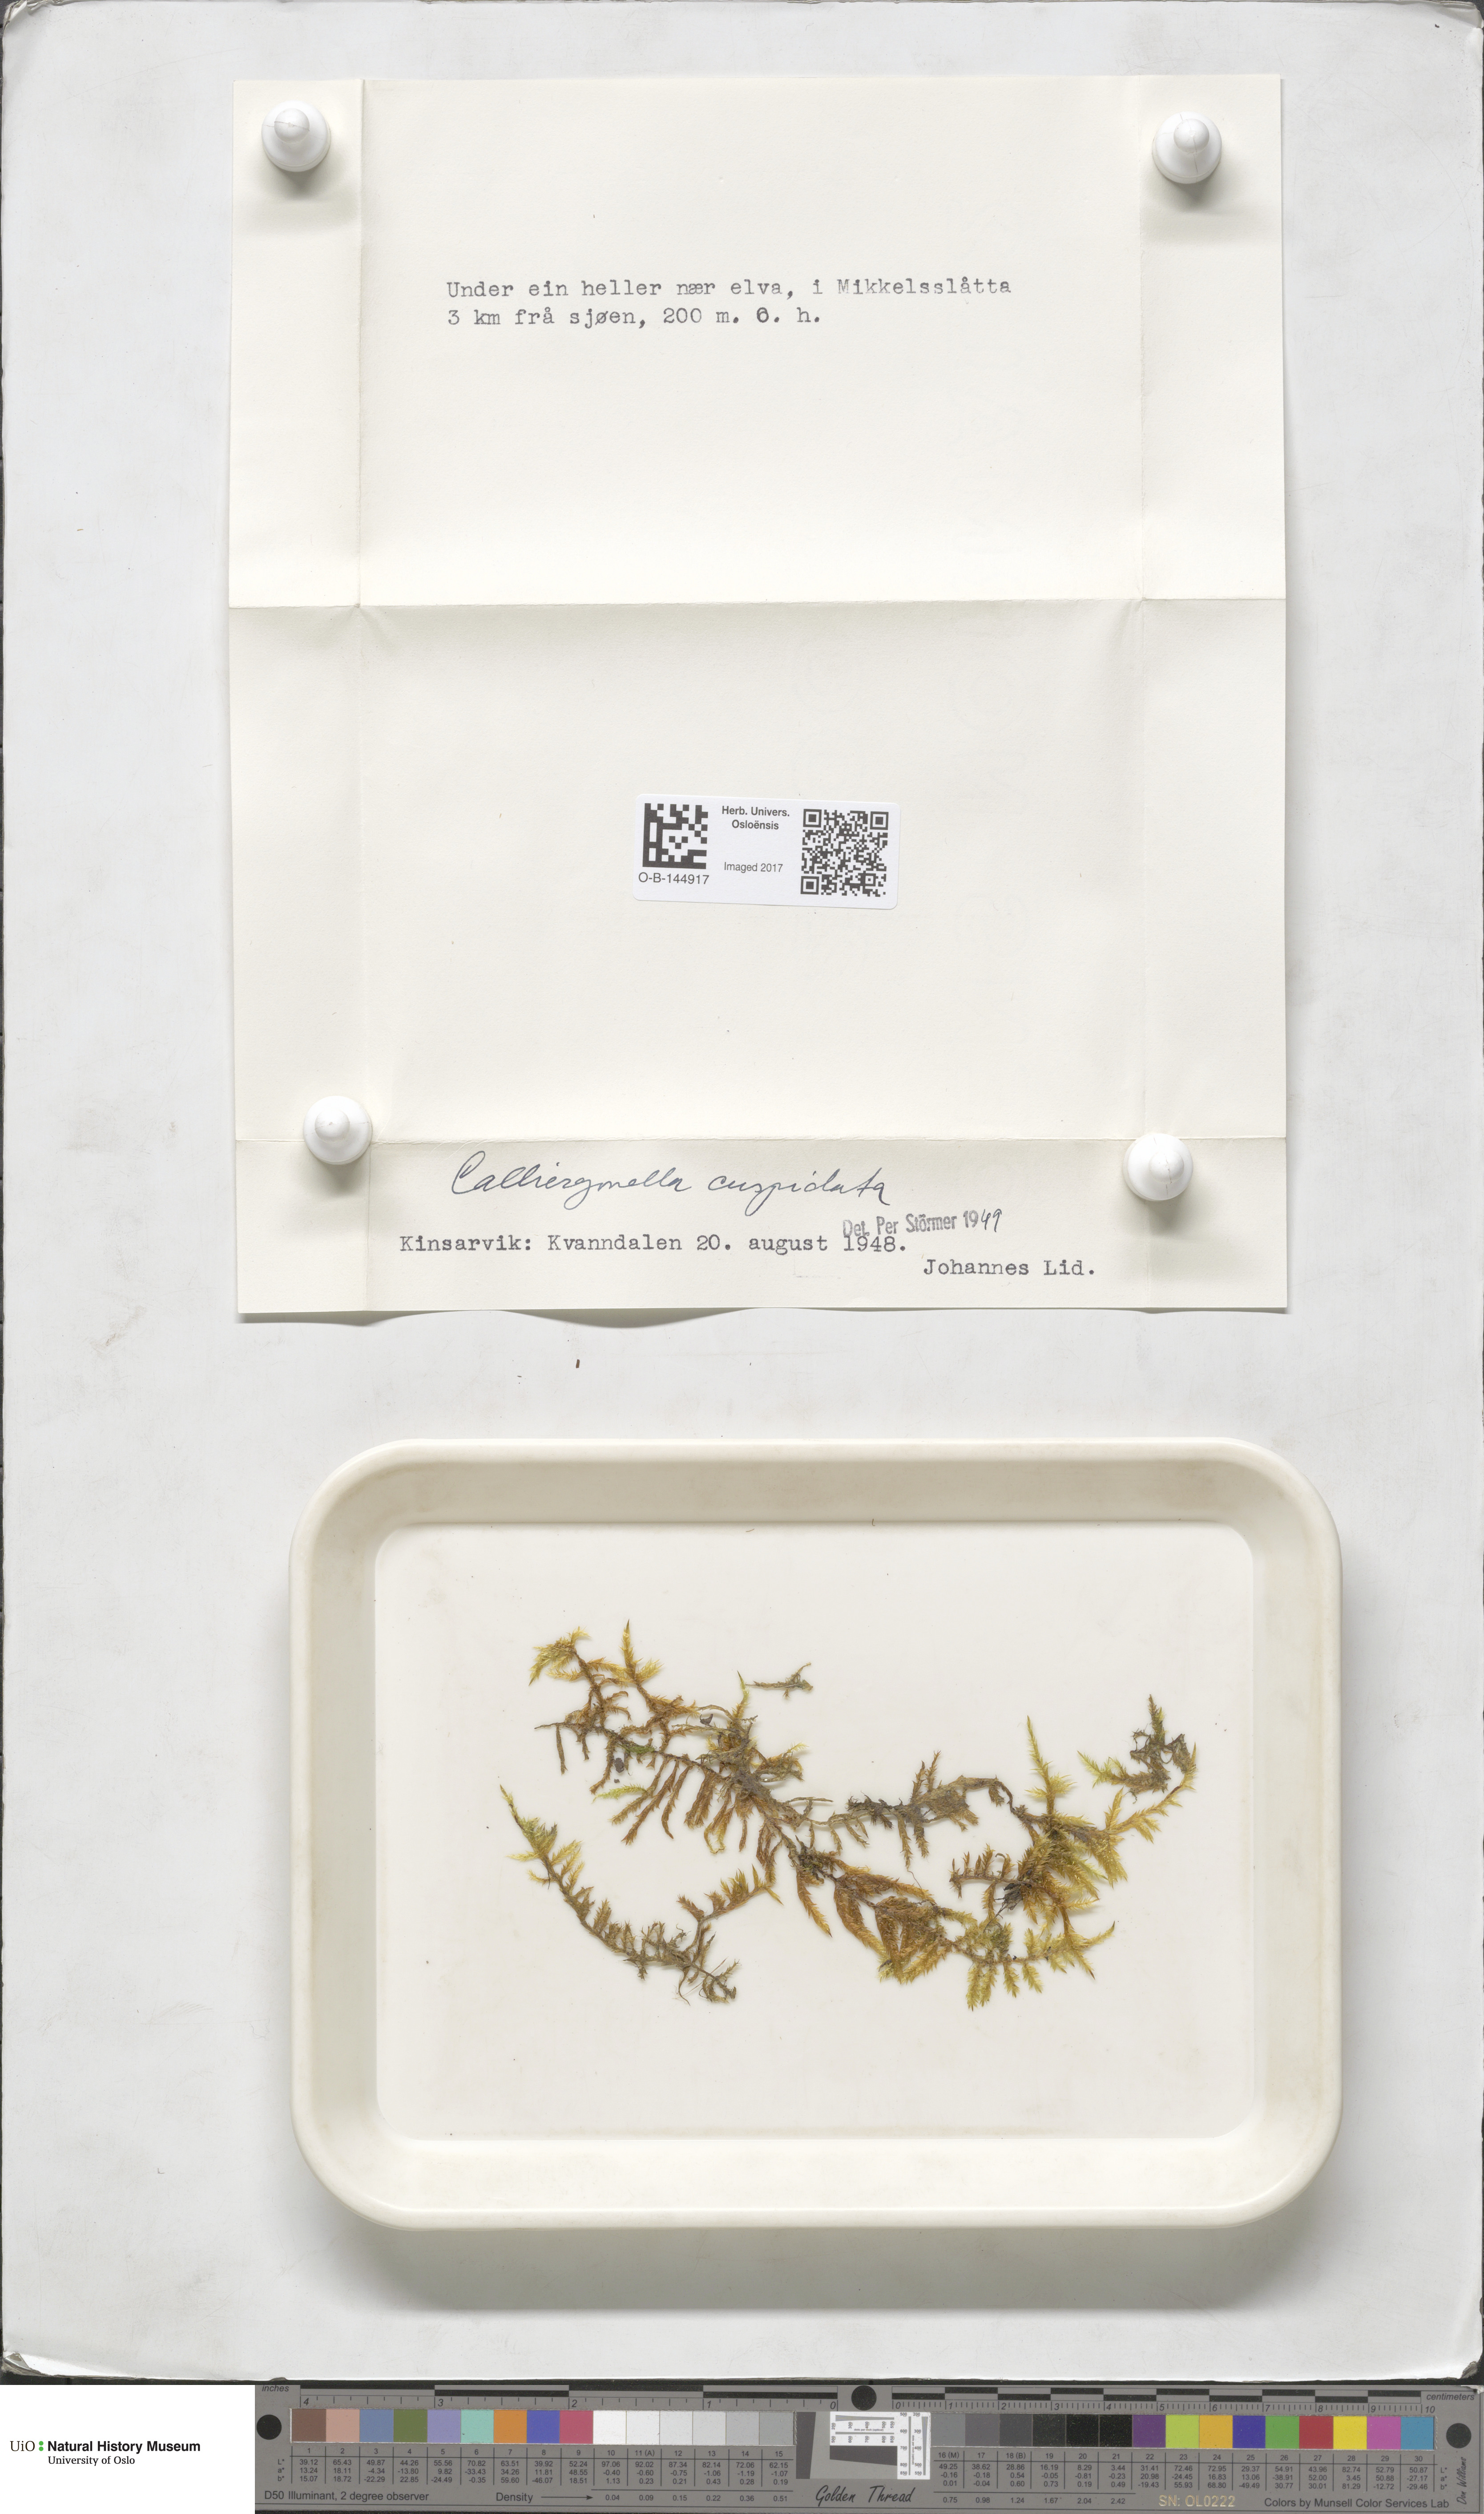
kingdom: Plantae
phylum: Bryophyta
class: Bryopsida
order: Hypnales
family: Pylaisiaceae
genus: Calliergonella
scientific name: Calliergonella cuspidata
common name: Common large wetland moss
